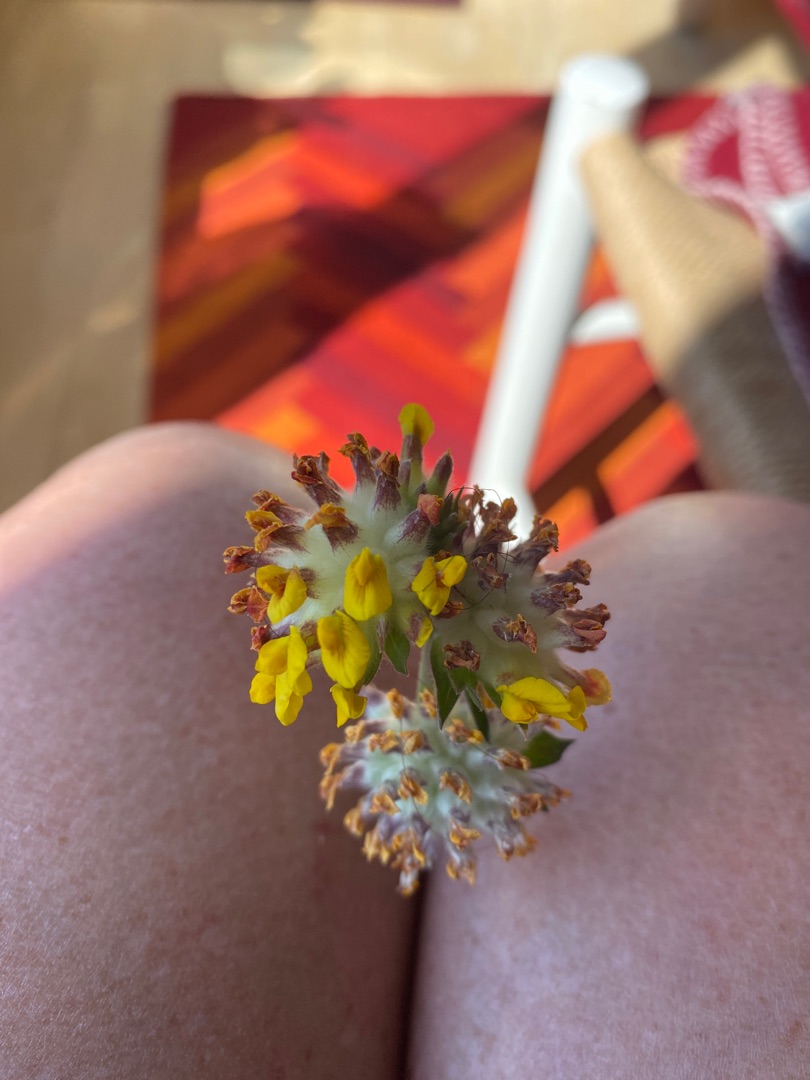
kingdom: Plantae
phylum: Tracheophyta
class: Magnoliopsida
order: Fabales
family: Fabaceae
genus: Anthyllis
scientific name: Anthyllis vulneraria
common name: Rundbælg
